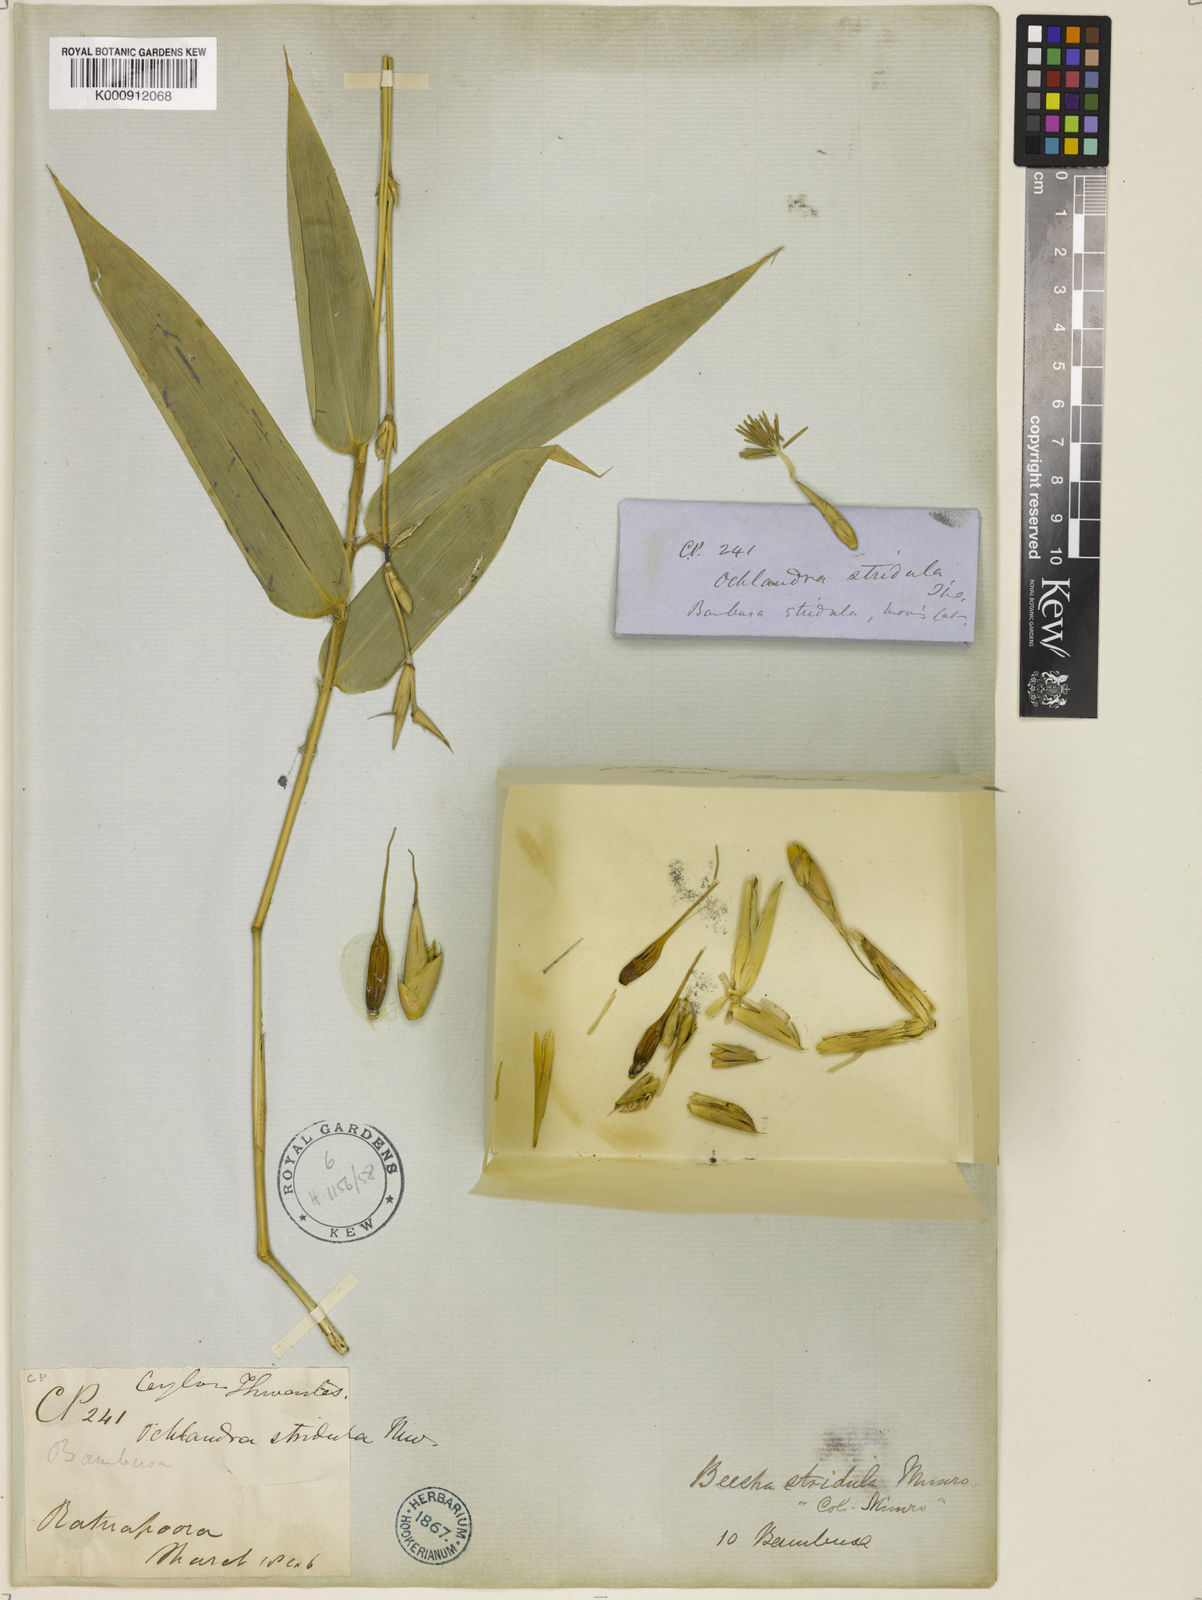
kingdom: Plantae
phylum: Tracheophyta
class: Liliopsida
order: Poales
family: Poaceae
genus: Ochlandra
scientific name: Ochlandra stridula
